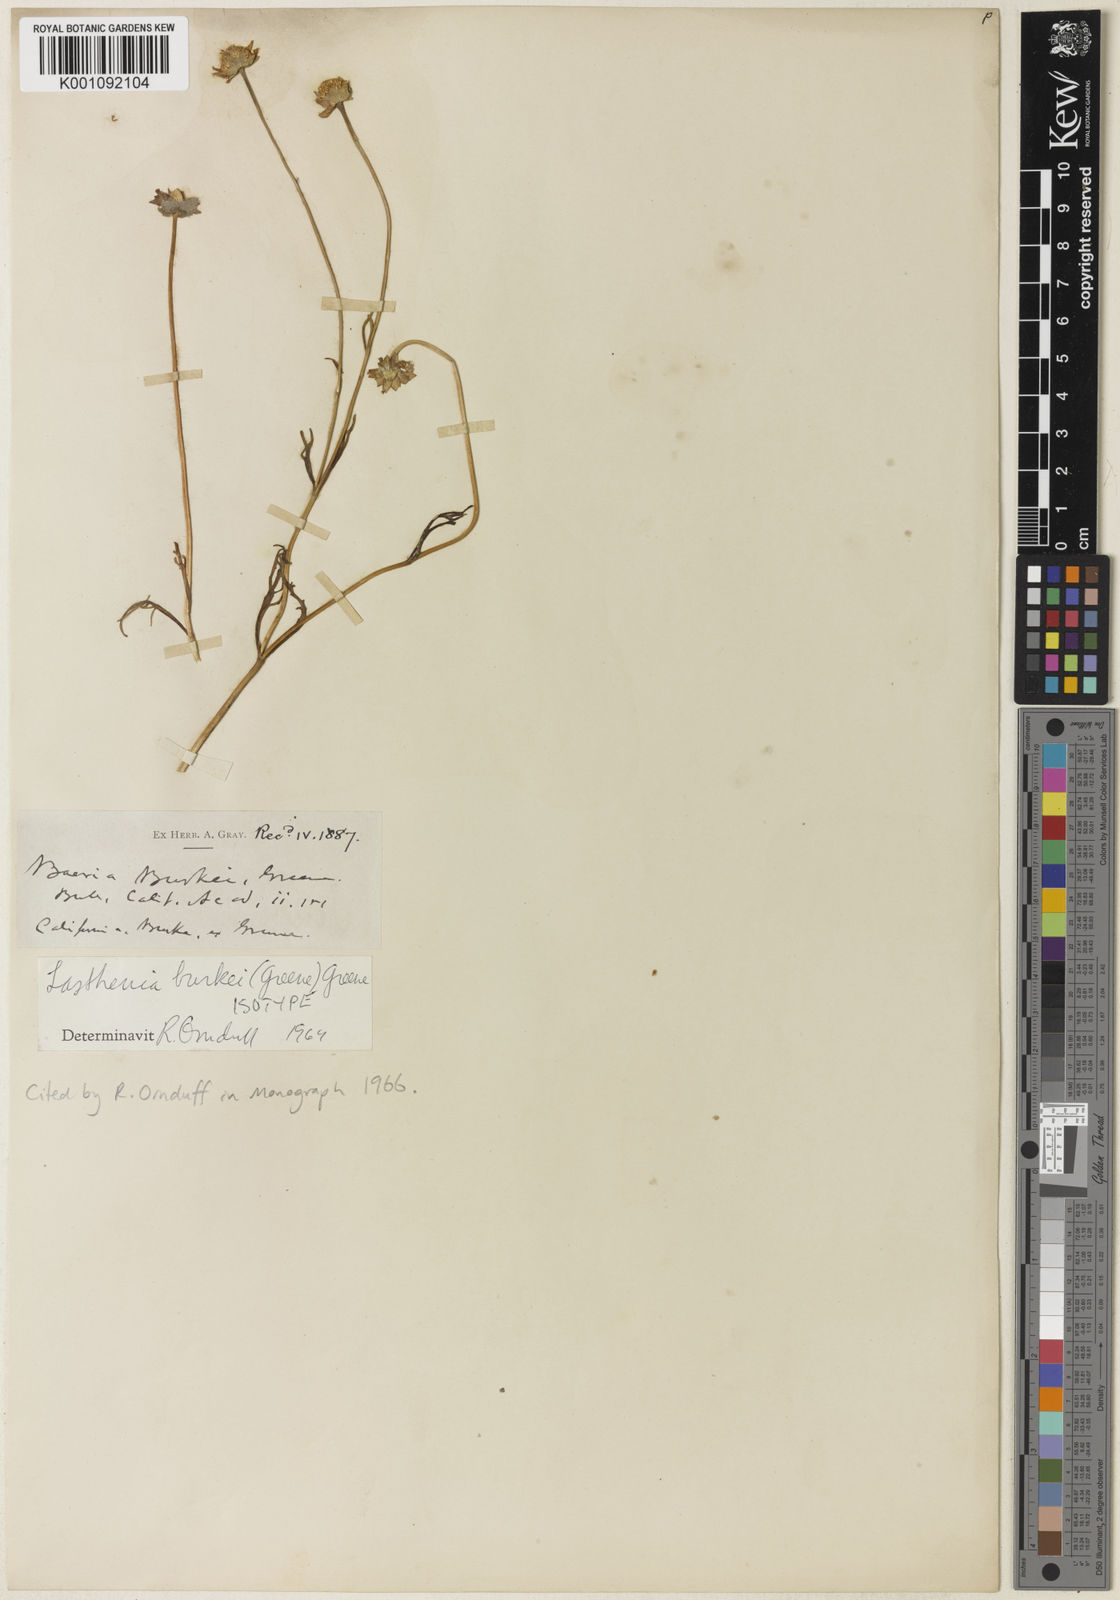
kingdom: Plantae
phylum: Tracheophyta
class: Magnoliopsida
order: Asterales
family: Asteraceae
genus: Lasthenia
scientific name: Lasthenia burkei
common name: Burke's goldfields
